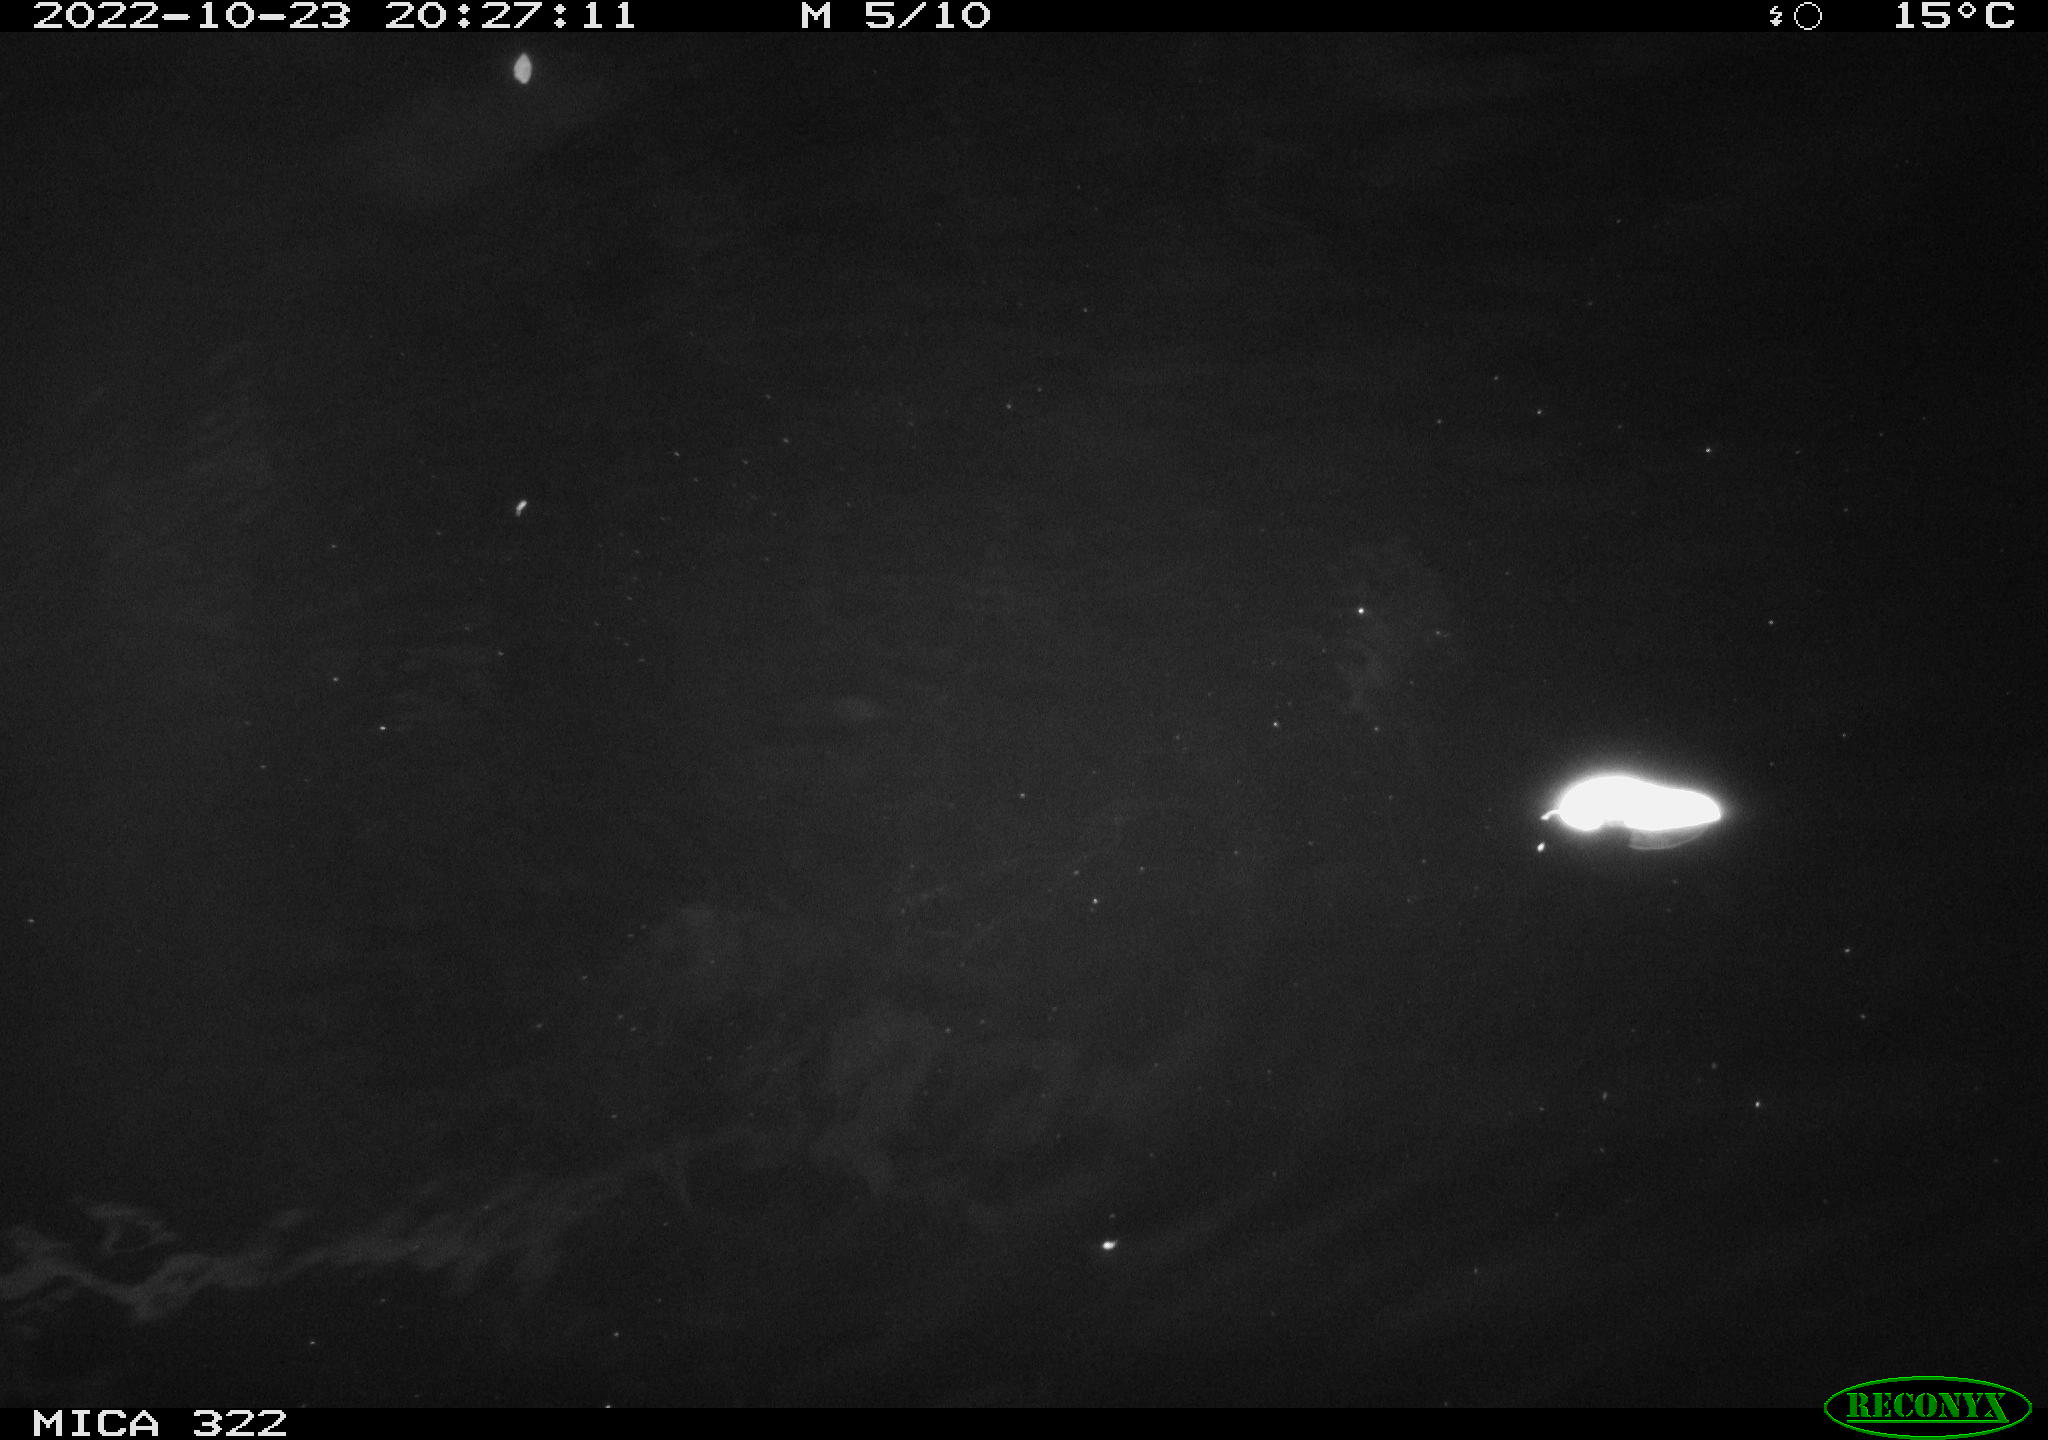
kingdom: Animalia
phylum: Chordata
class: Mammalia
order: Rodentia
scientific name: Rodentia
